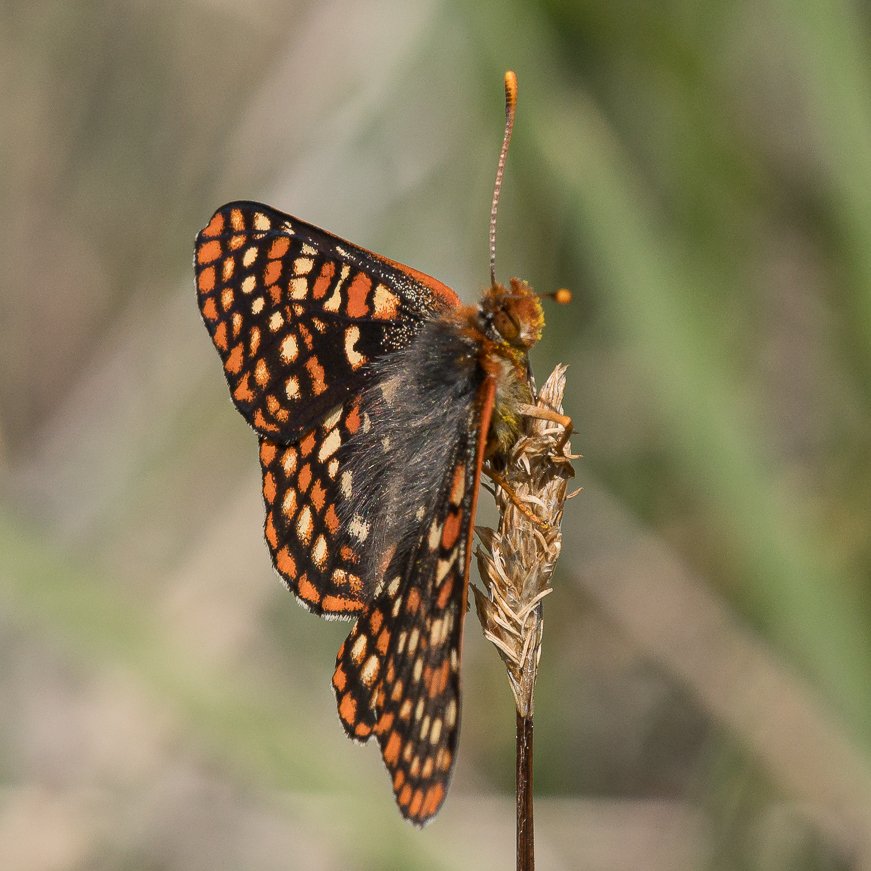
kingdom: Animalia
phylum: Arthropoda
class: Insecta
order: Lepidoptera
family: Nymphalidae
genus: Occidryas
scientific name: Occidryas anicia
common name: Anicia Checkerspot
